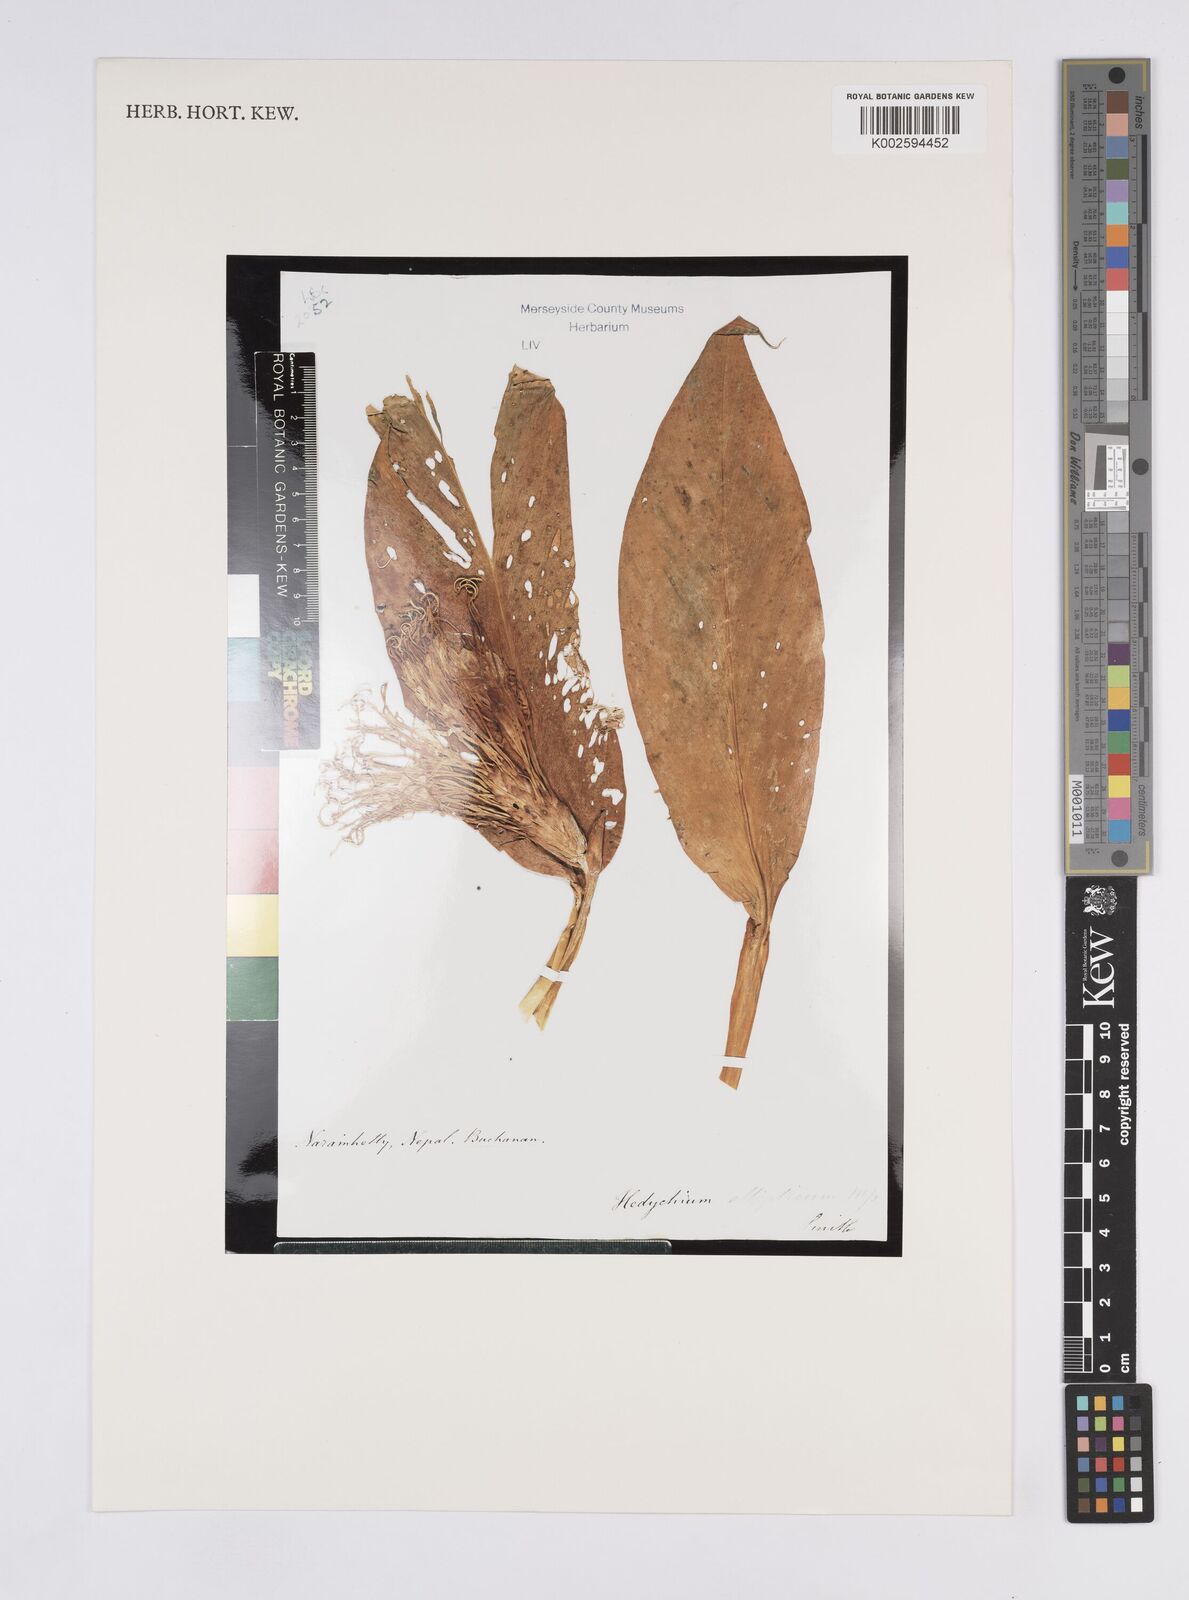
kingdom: Plantae
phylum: Tracheophyta
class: Liliopsida
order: Zingiberales
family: Zingiberaceae
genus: Hedychium
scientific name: Hedychium ellipticum
